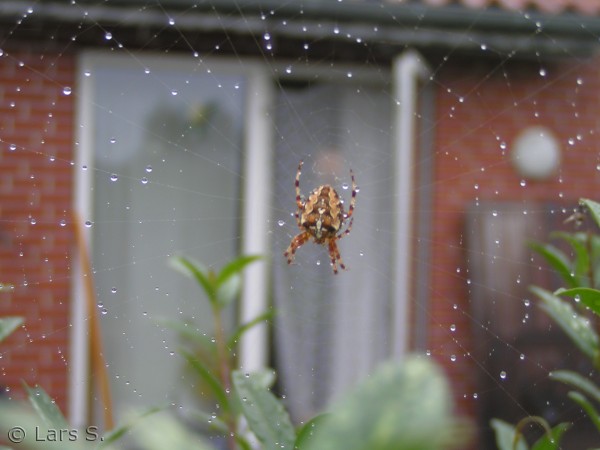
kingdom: Animalia
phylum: Arthropoda
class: Arachnida
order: Araneae
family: Araneidae
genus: Araneus
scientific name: Araneus diadematus
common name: Korsedderkop
